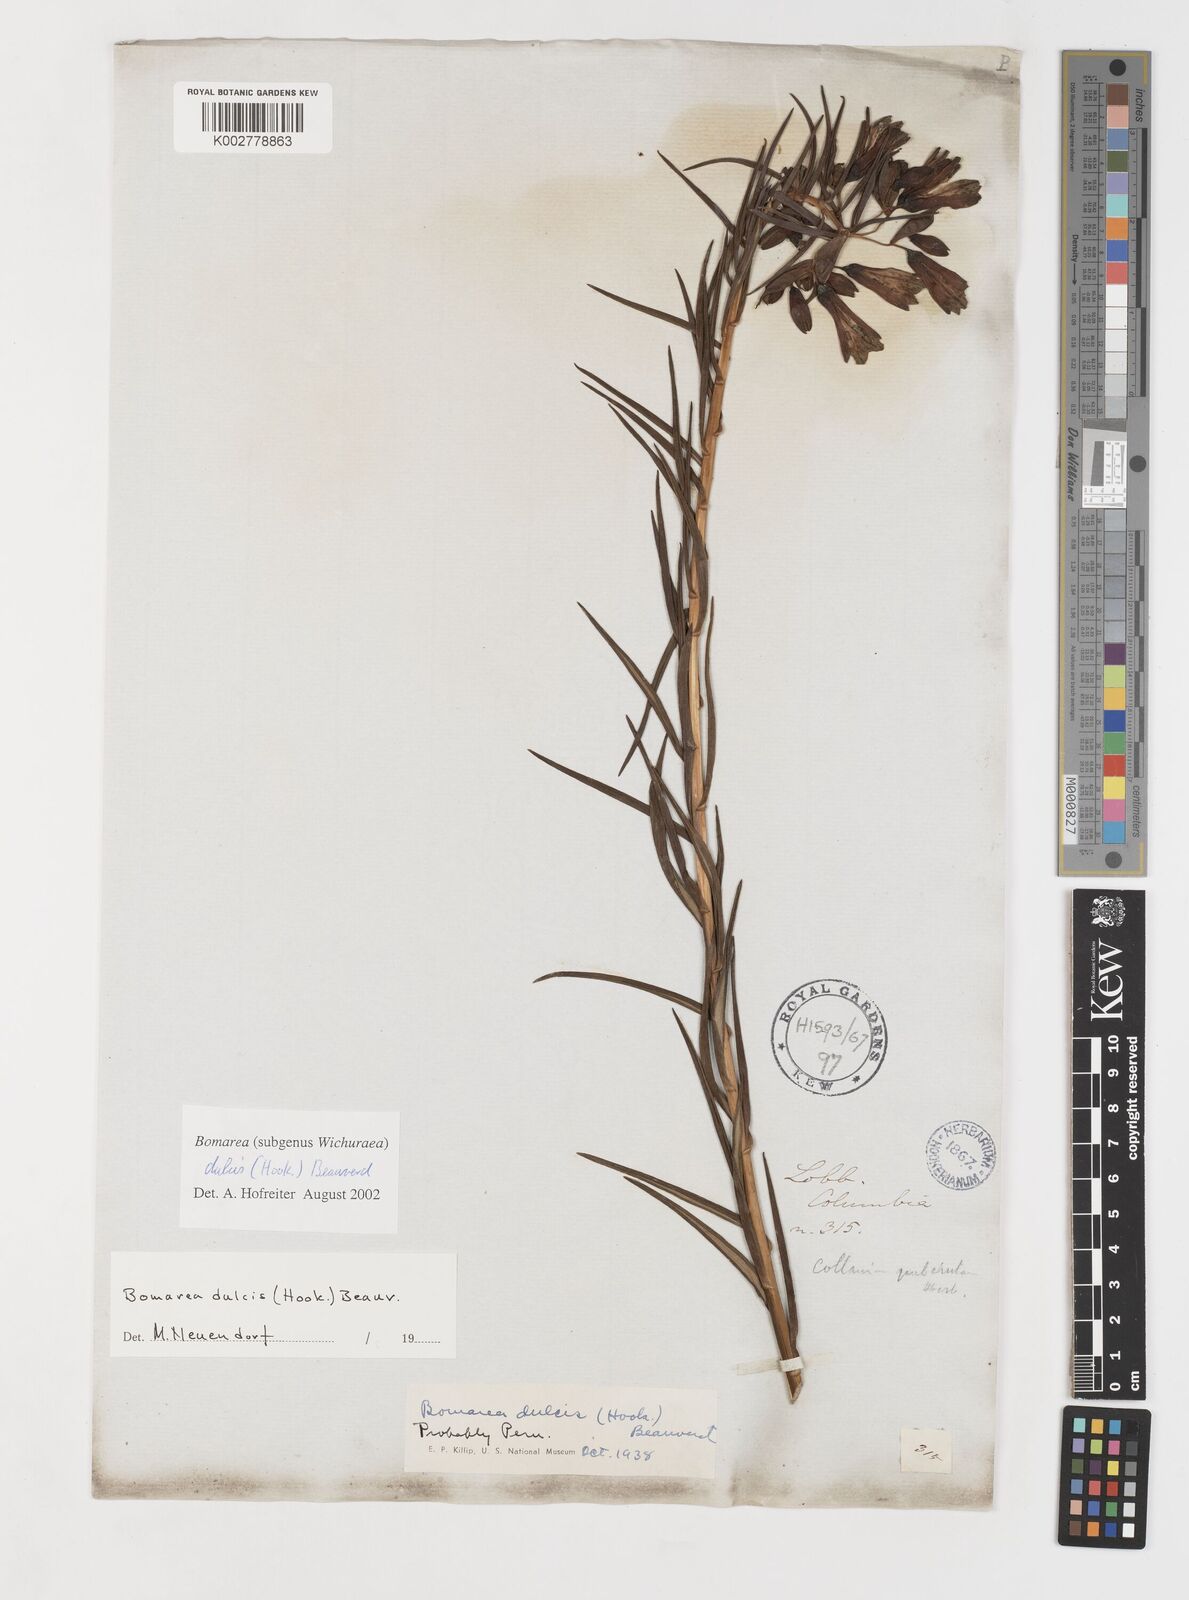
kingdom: Plantae
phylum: Tracheophyta
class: Liliopsida
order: Liliales
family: Alstroemeriaceae
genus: Bomarea
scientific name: Bomarea dulcis
